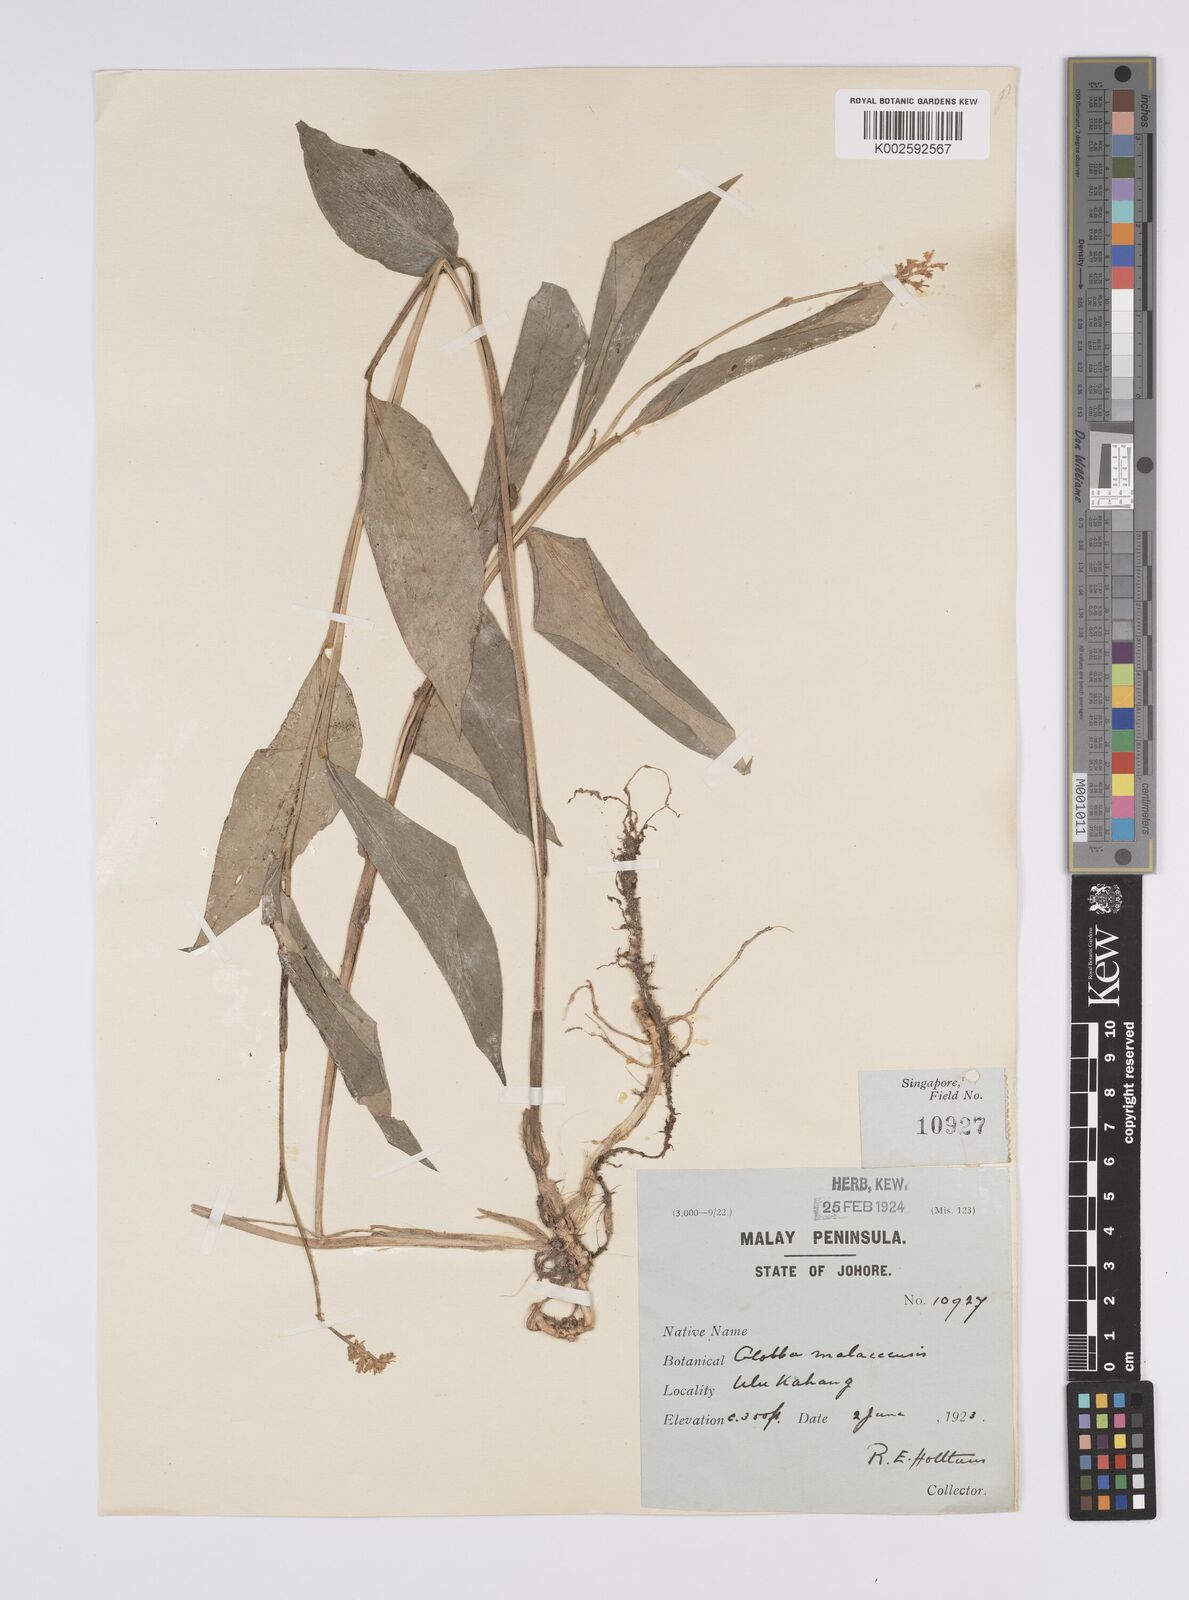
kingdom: Plantae
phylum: Tracheophyta
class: Liliopsida
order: Zingiberales
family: Zingiberaceae
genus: Globba
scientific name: Globba variabilis
